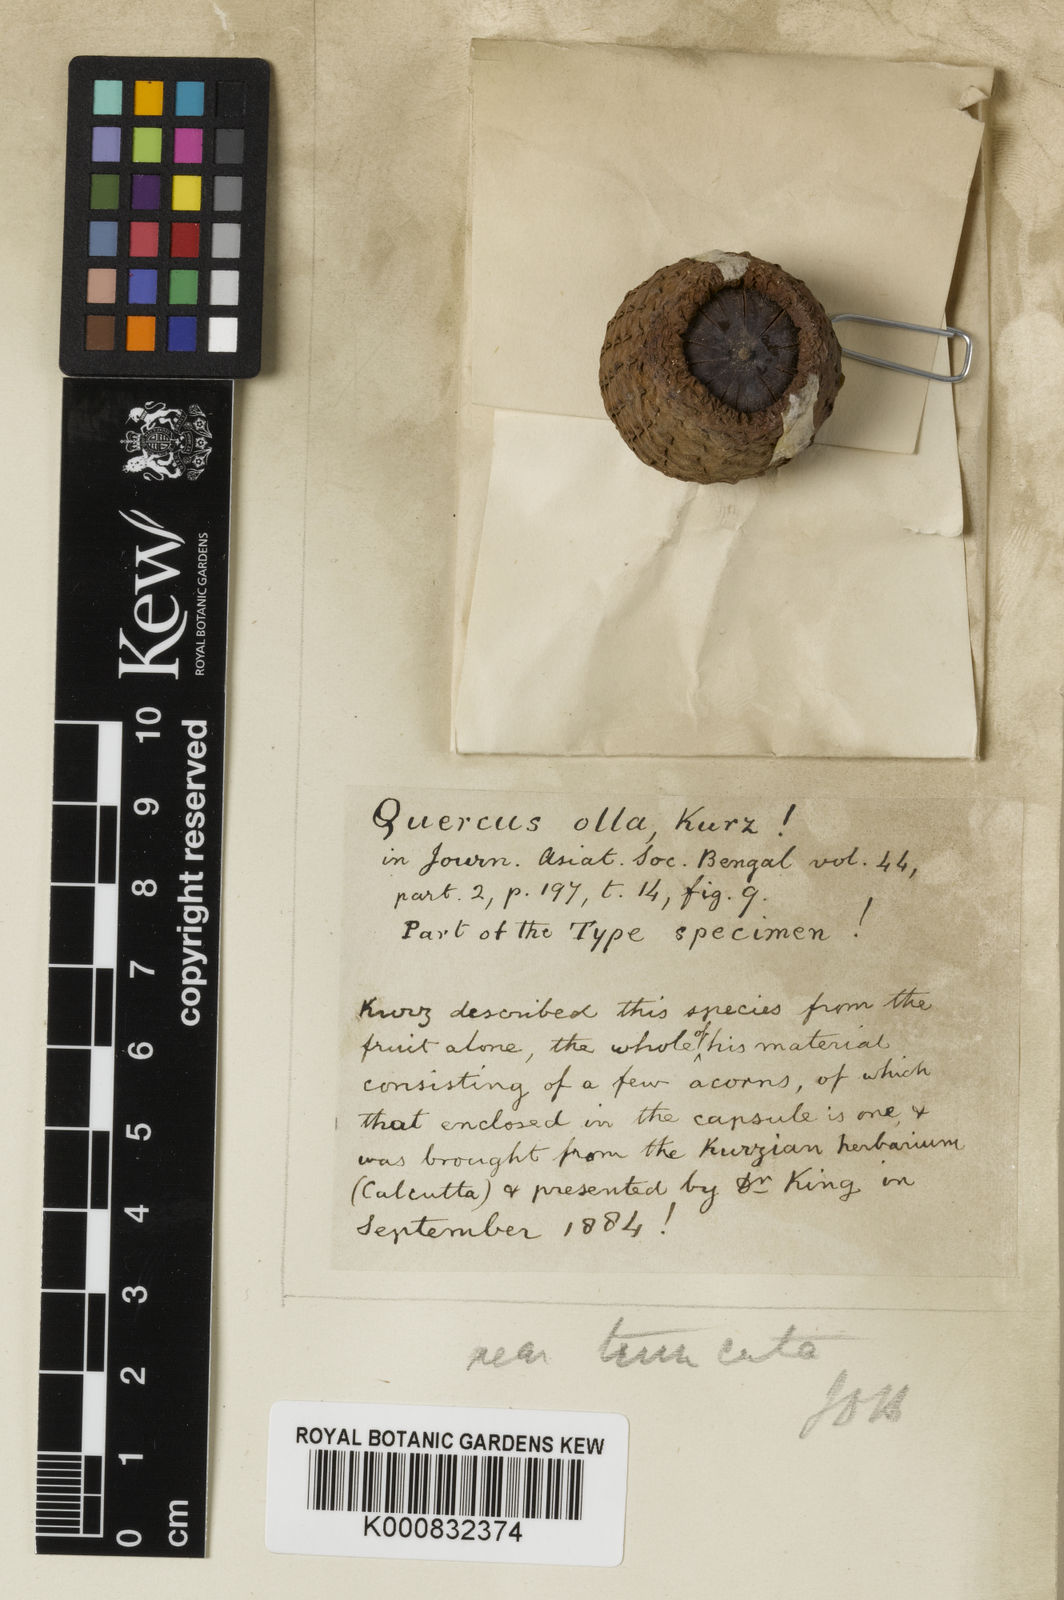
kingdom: Plantae
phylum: Tracheophyta
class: Magnoliopsida
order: Fagales
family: Fagaceae
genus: Lithocarpus
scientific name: Lithocarpus ollus
